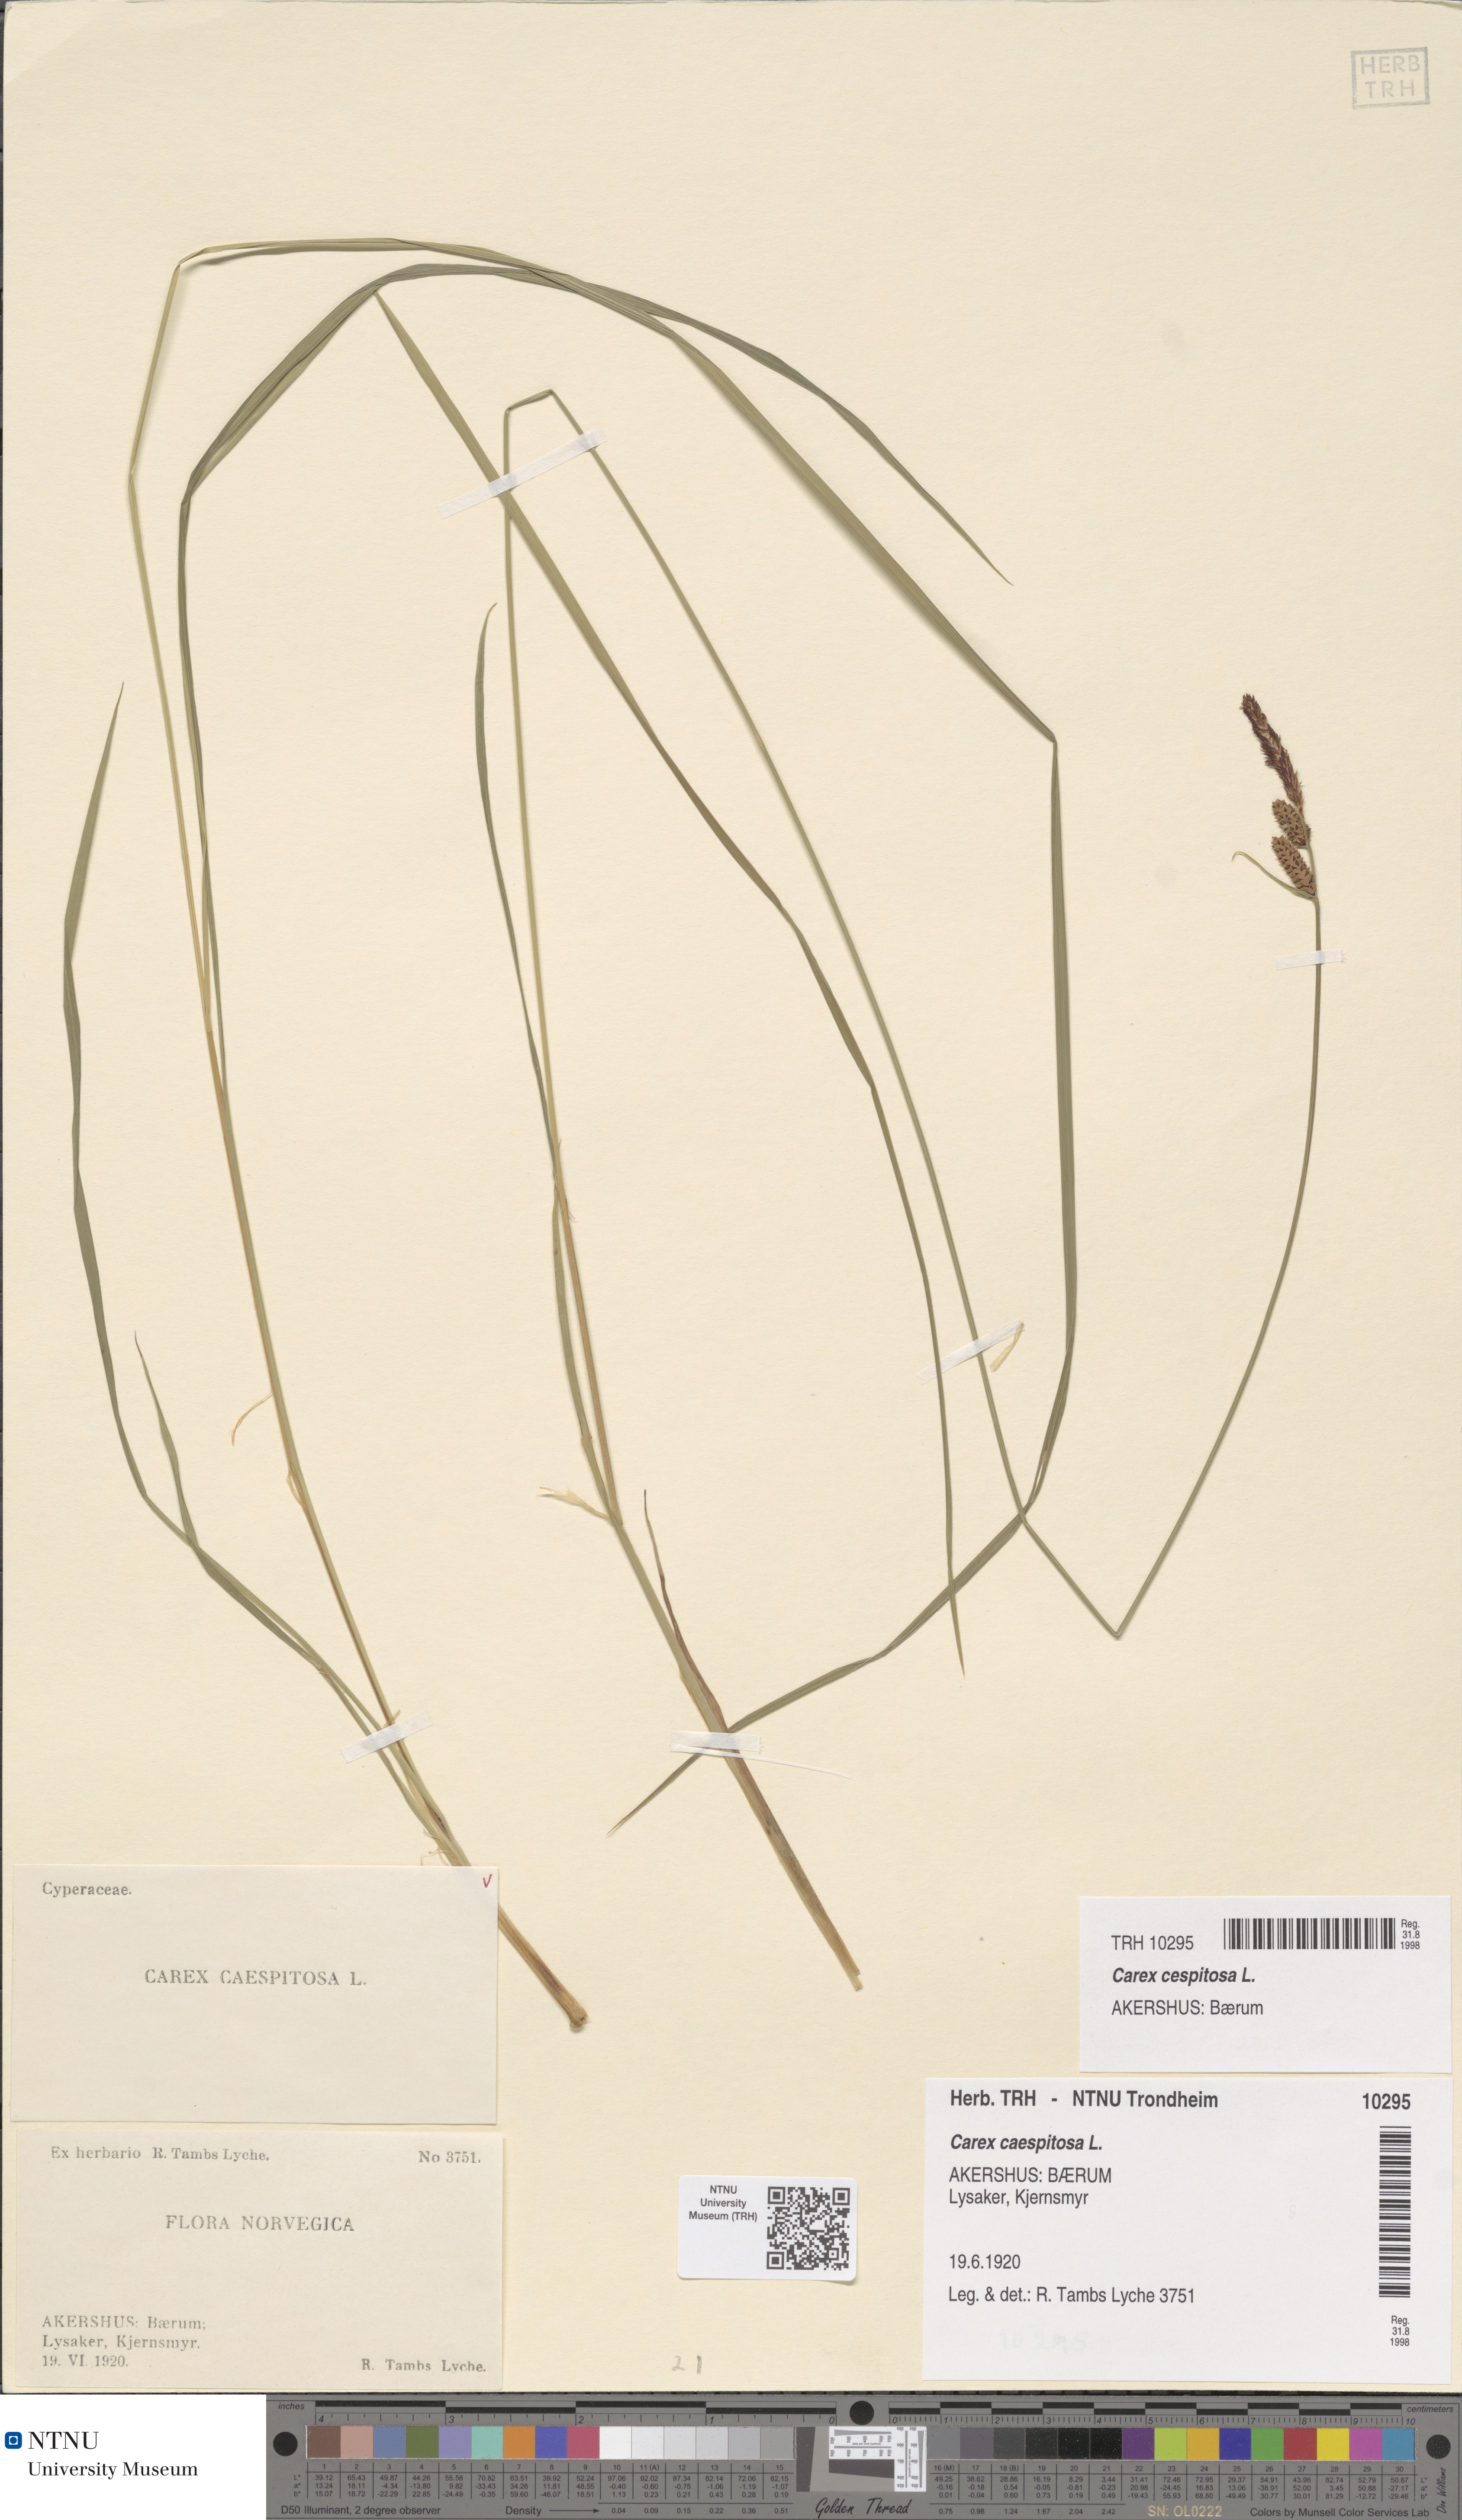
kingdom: Plantae
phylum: Tracheophyta
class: Liliopsida
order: Poales
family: Cyperaceae
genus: Carex
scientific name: Carex cespitosa
